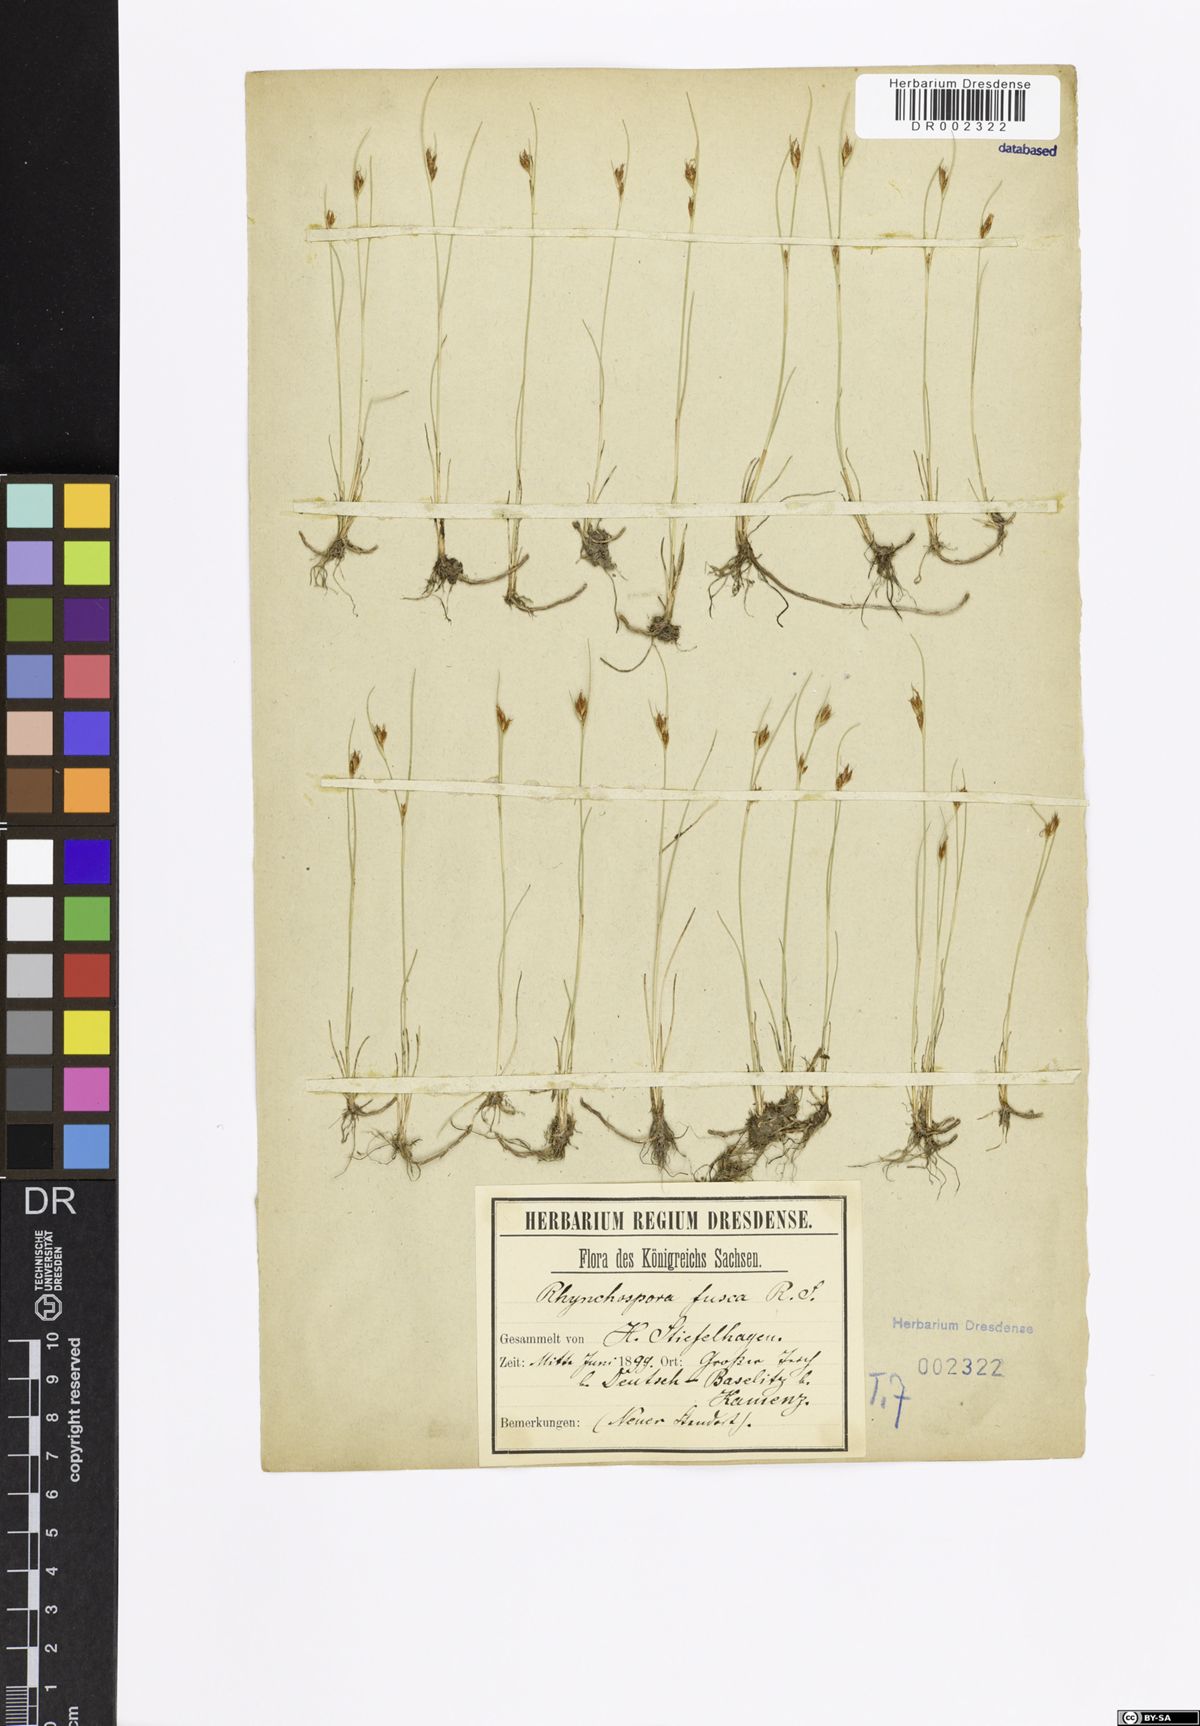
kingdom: Plantae
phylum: Tracheophyta
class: Liliopsida
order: Poales
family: Cyperaceae
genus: Rhynchospora
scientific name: Rhynchospora fusca
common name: Brown beak-sedge
